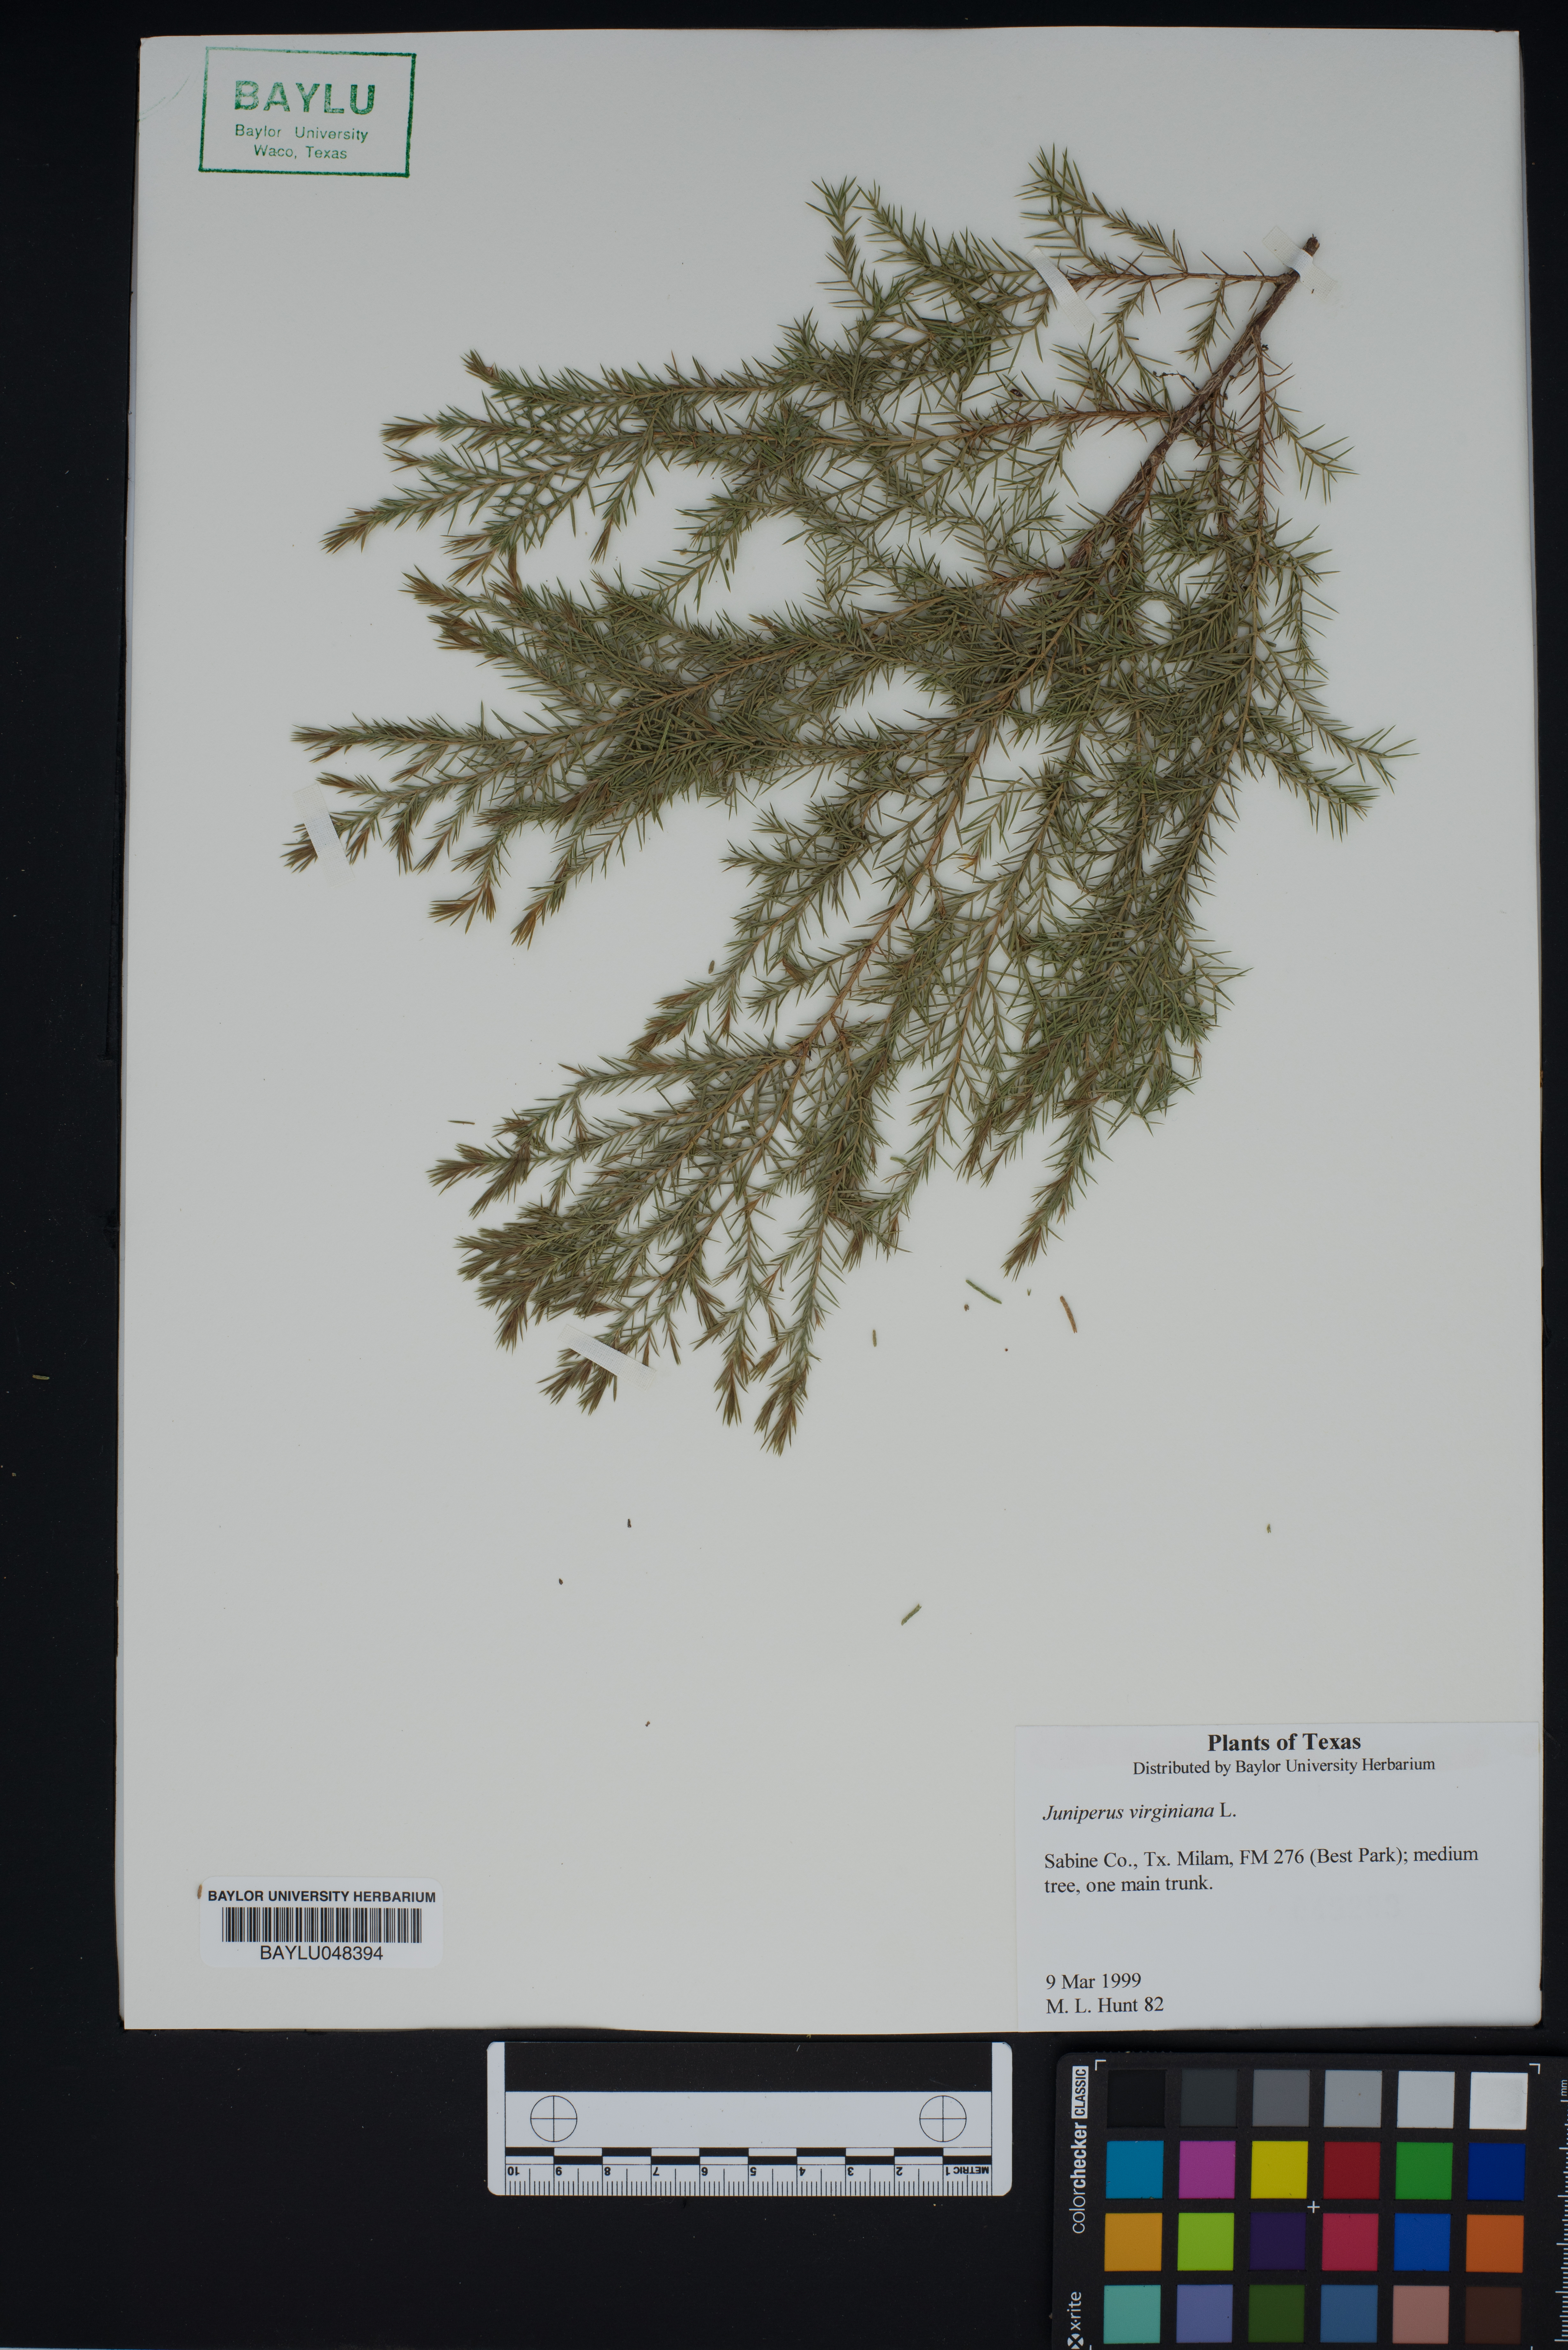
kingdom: Plantae
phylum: Tracheophyta
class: Pinopsida
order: Pinales
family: Cupressaceae
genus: Juniperus
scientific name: Juniperus virginiana
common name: Red juniper
